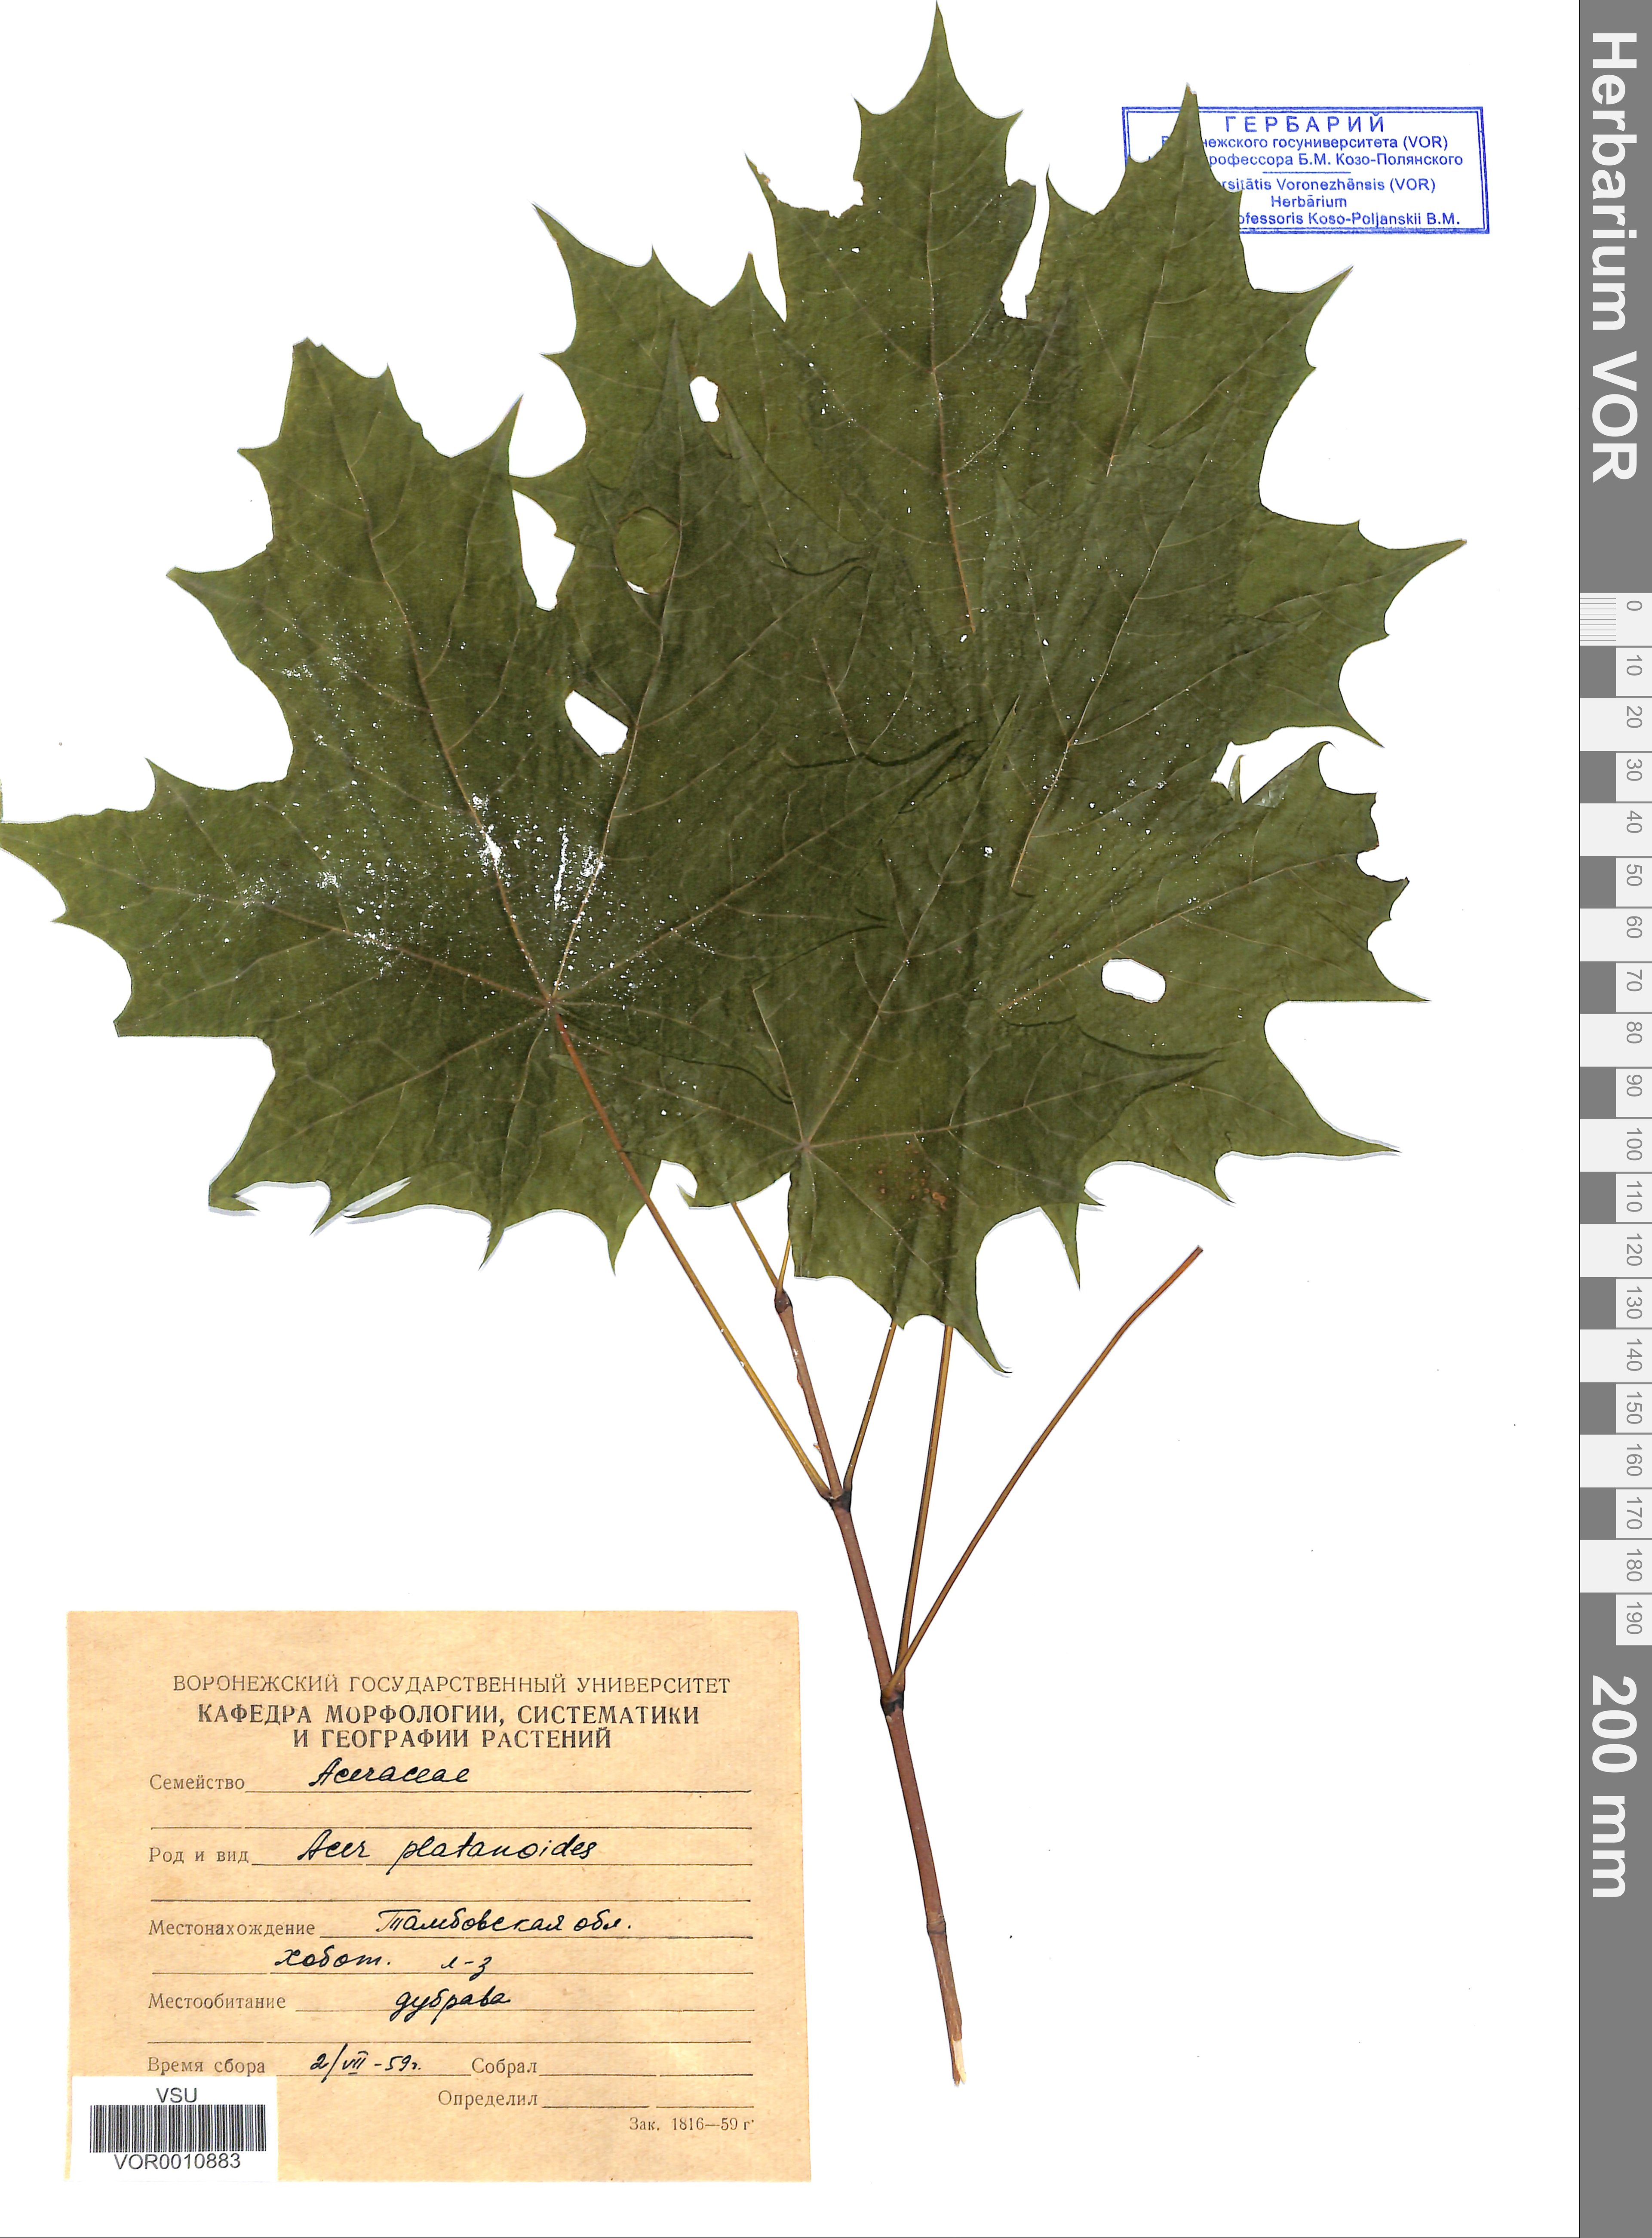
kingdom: Plantae
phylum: Tracheophyta
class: Magnoliopsida
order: Sapindales
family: Sapindaceae
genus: Acer
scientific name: Acer platanoides
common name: Norway maple
